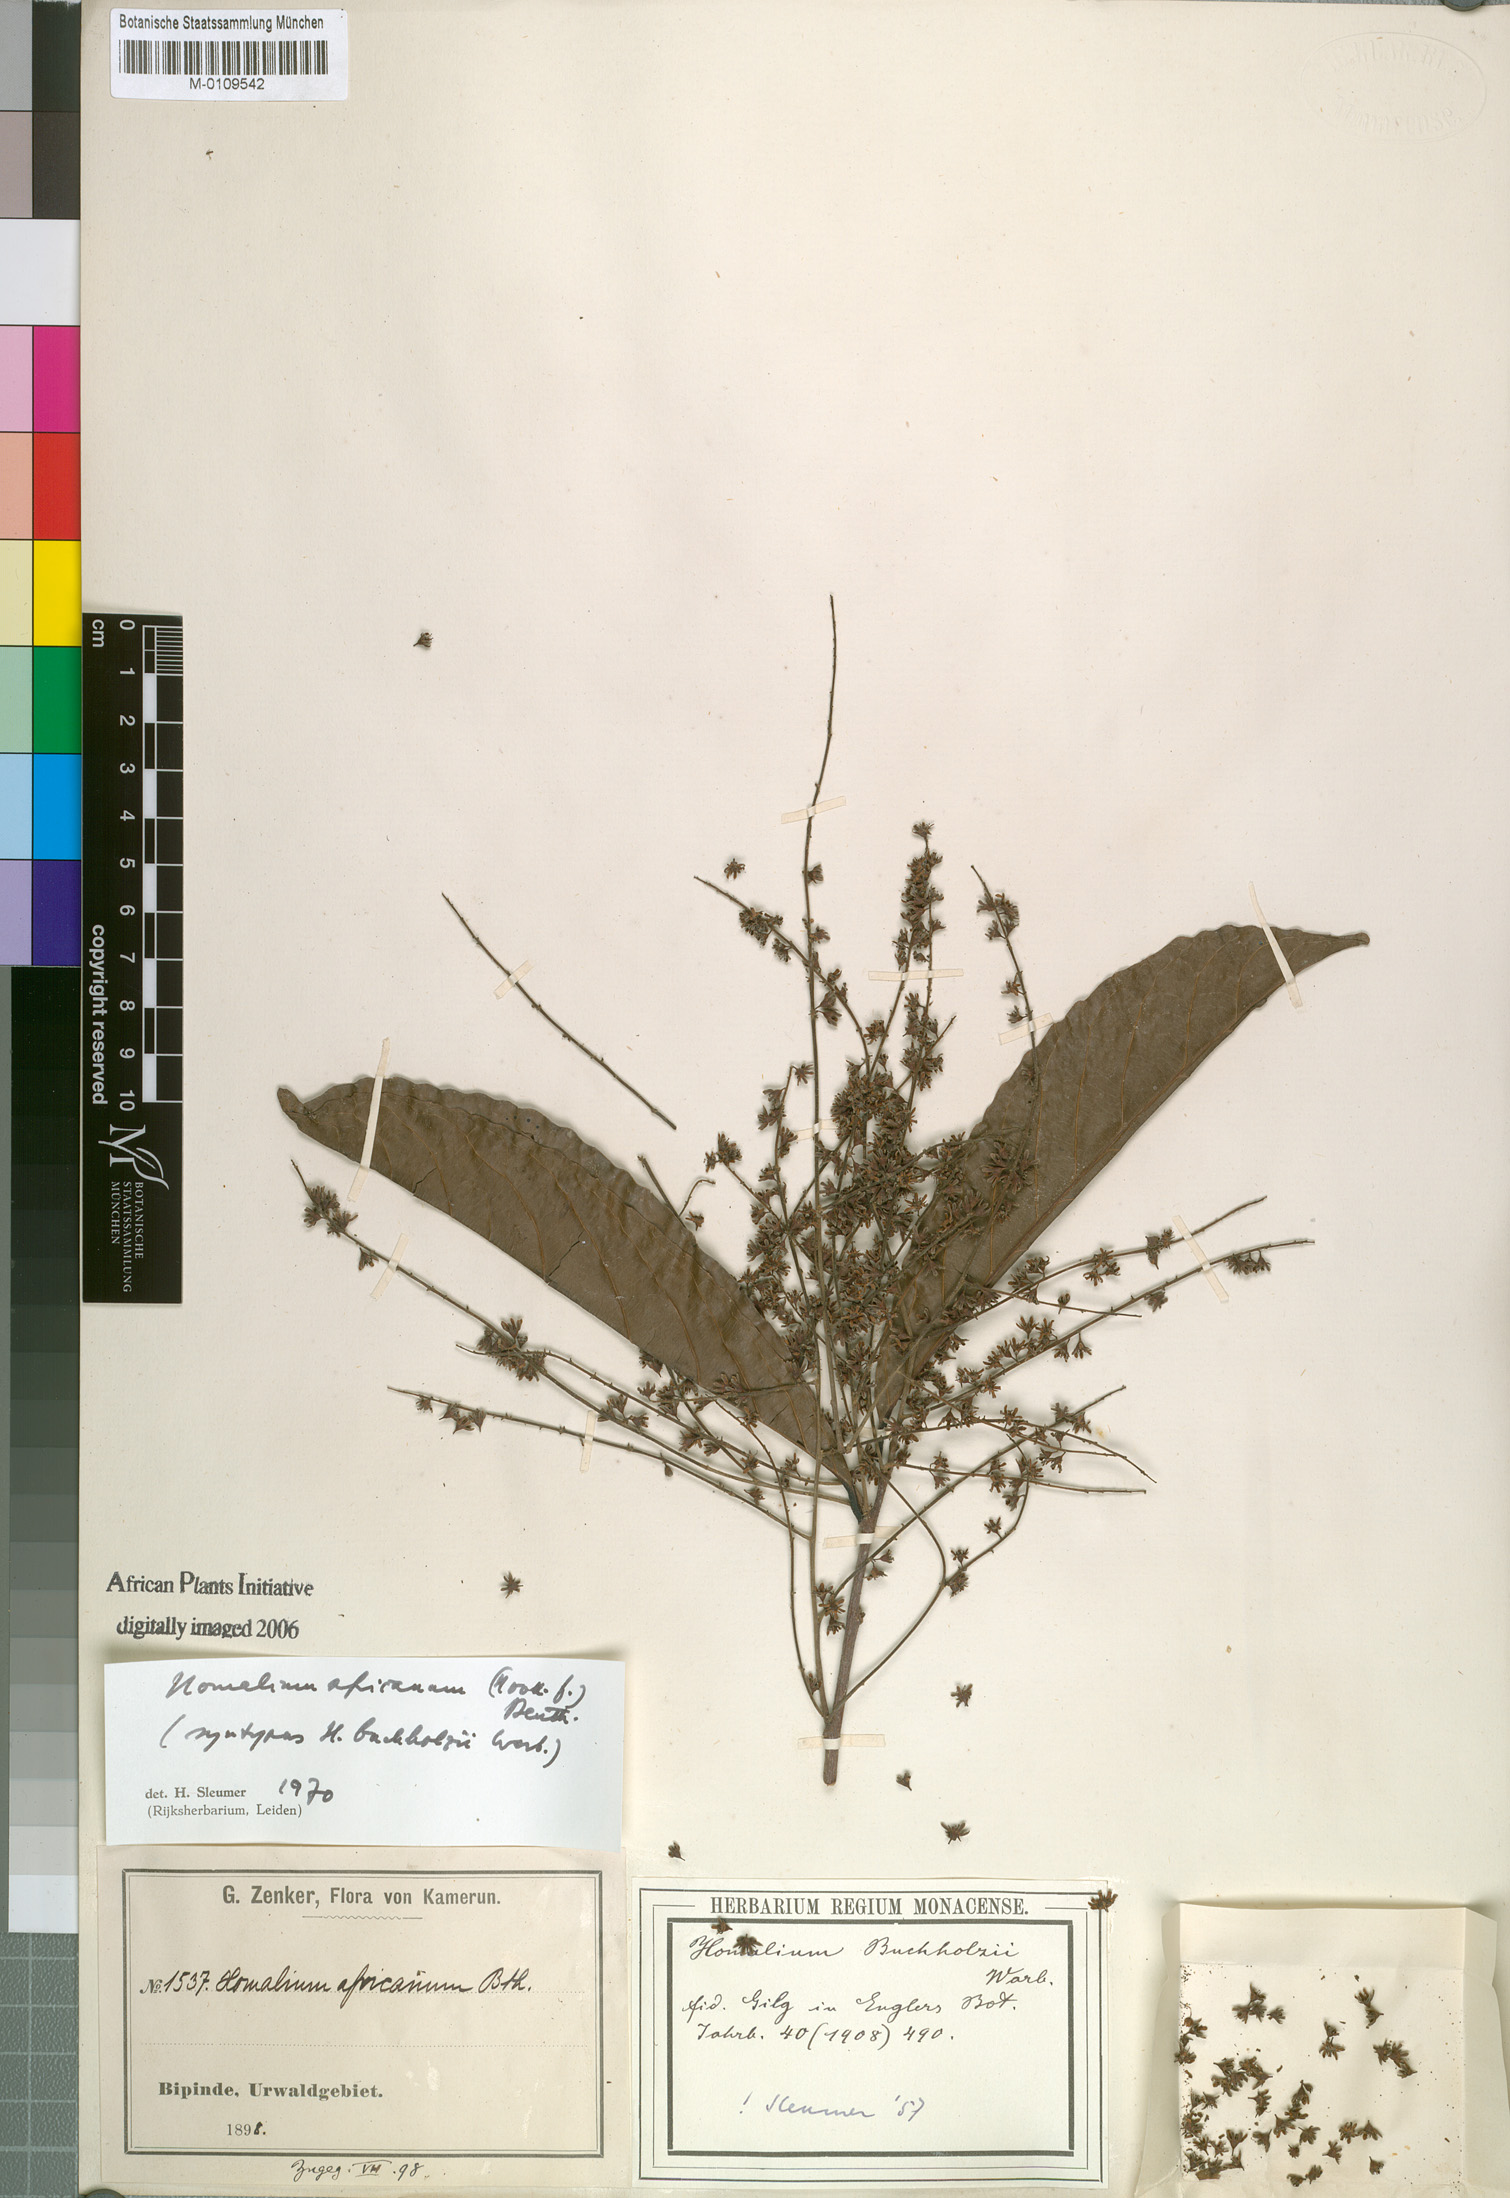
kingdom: Plantae
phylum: Tracheophyta
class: Magnoliopsida
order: Malpighiales
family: Salicaceae
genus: Homalium
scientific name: Homalium africanum
